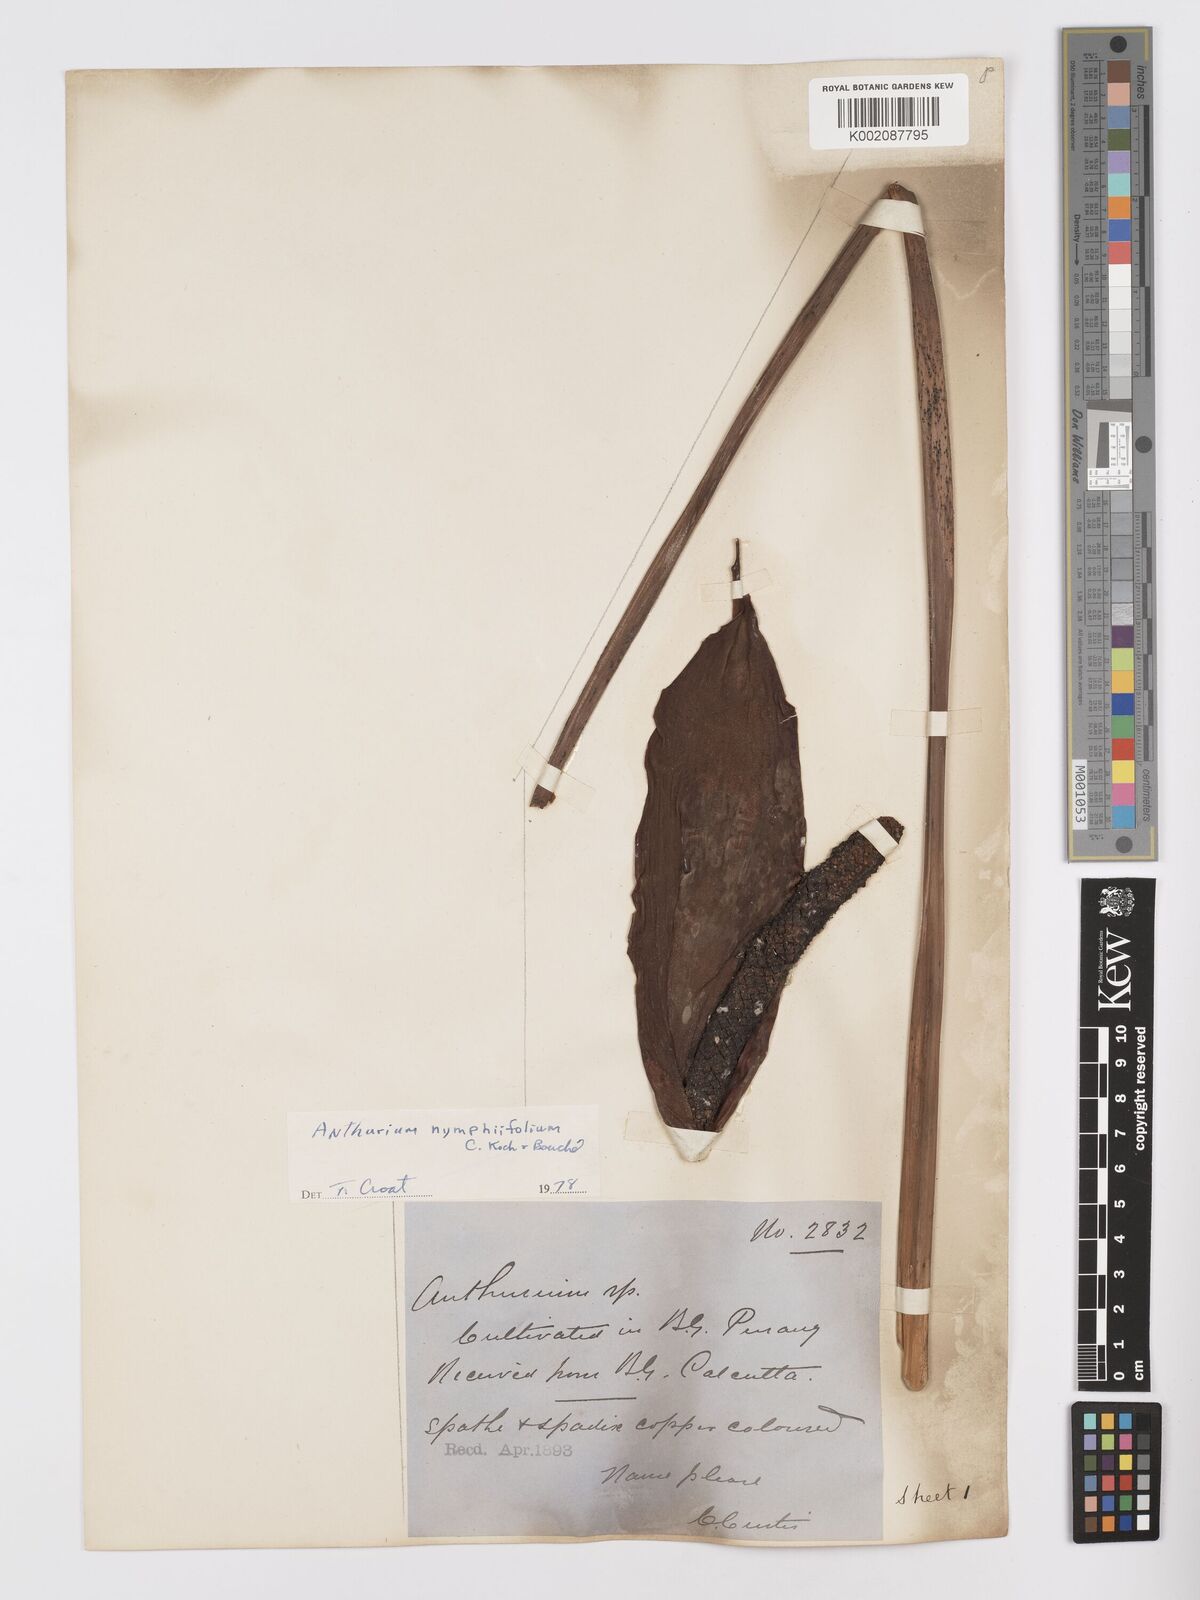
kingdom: Plantae
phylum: Tracheophyta
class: Liliopsida
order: Alismatales
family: Araceae
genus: Anthurium
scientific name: Anthurium nymphaeifolium
